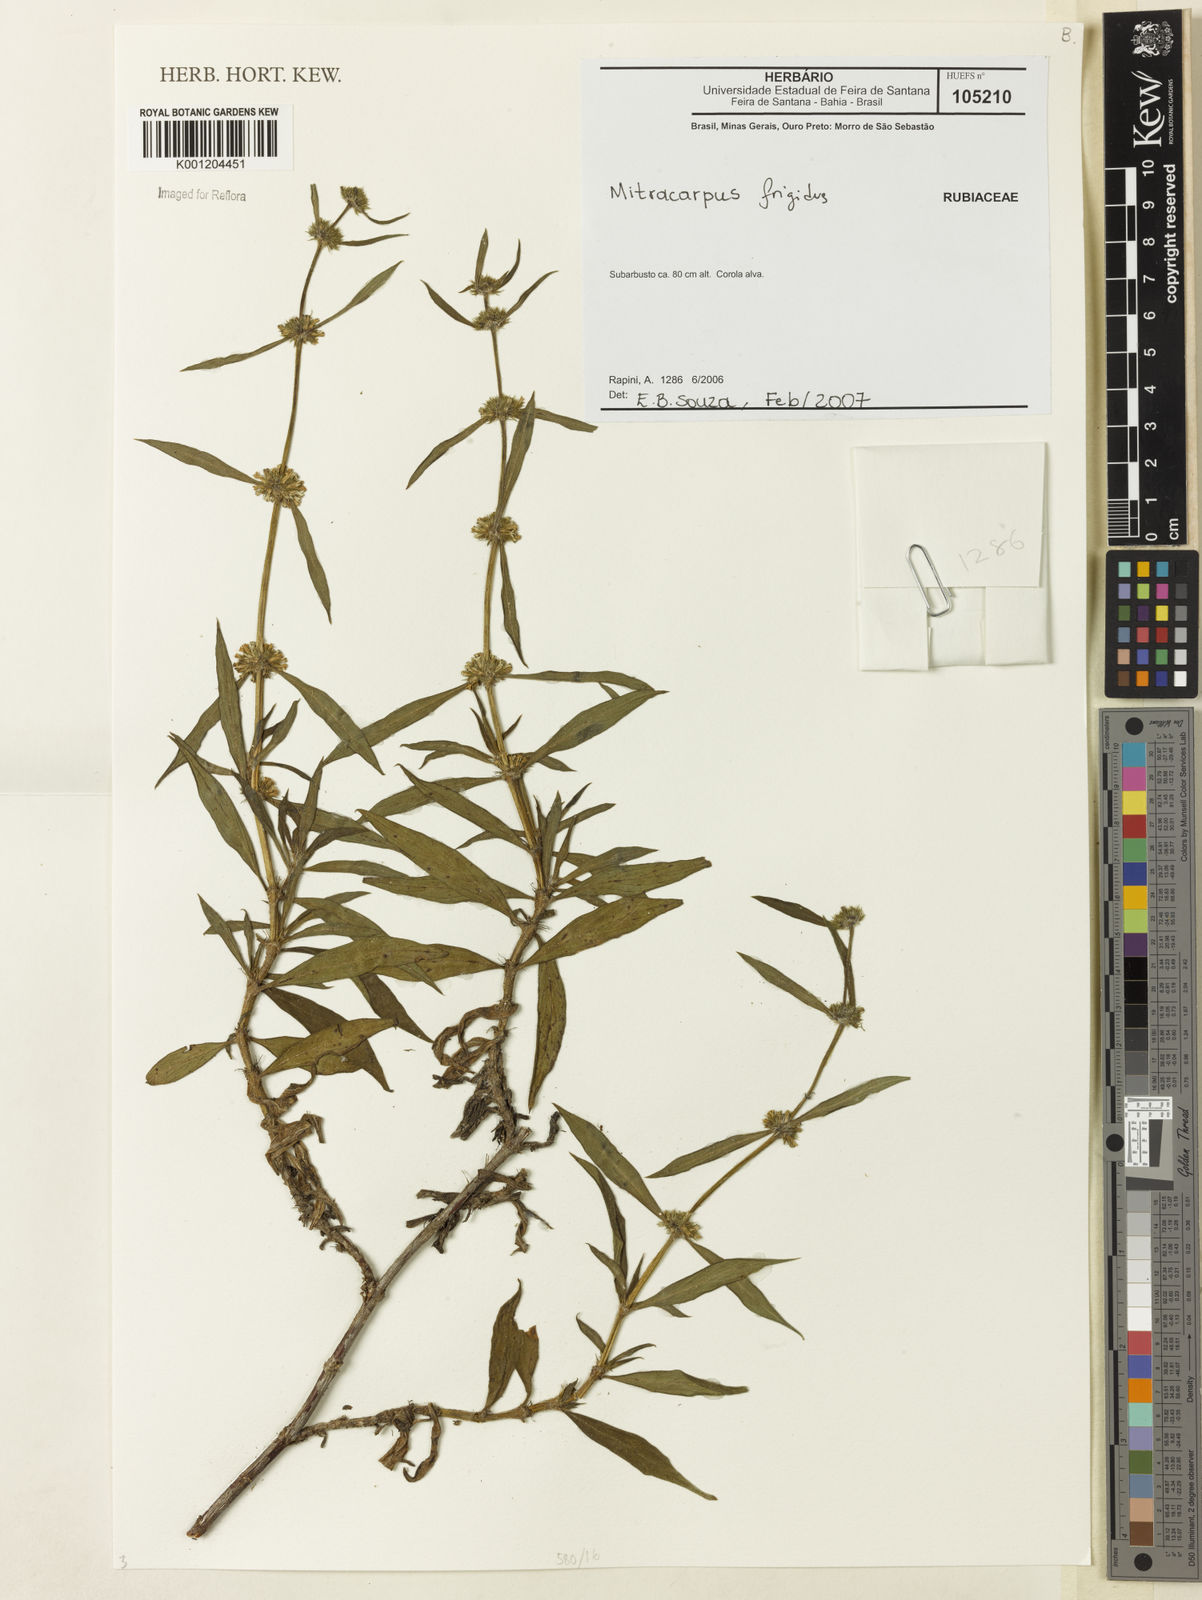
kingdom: Plantae
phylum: Tracheophyta
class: Magnoliopsida
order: Gentianales
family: Rubiaceae
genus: Mitracarpus
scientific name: Mitracarpus frigidus
